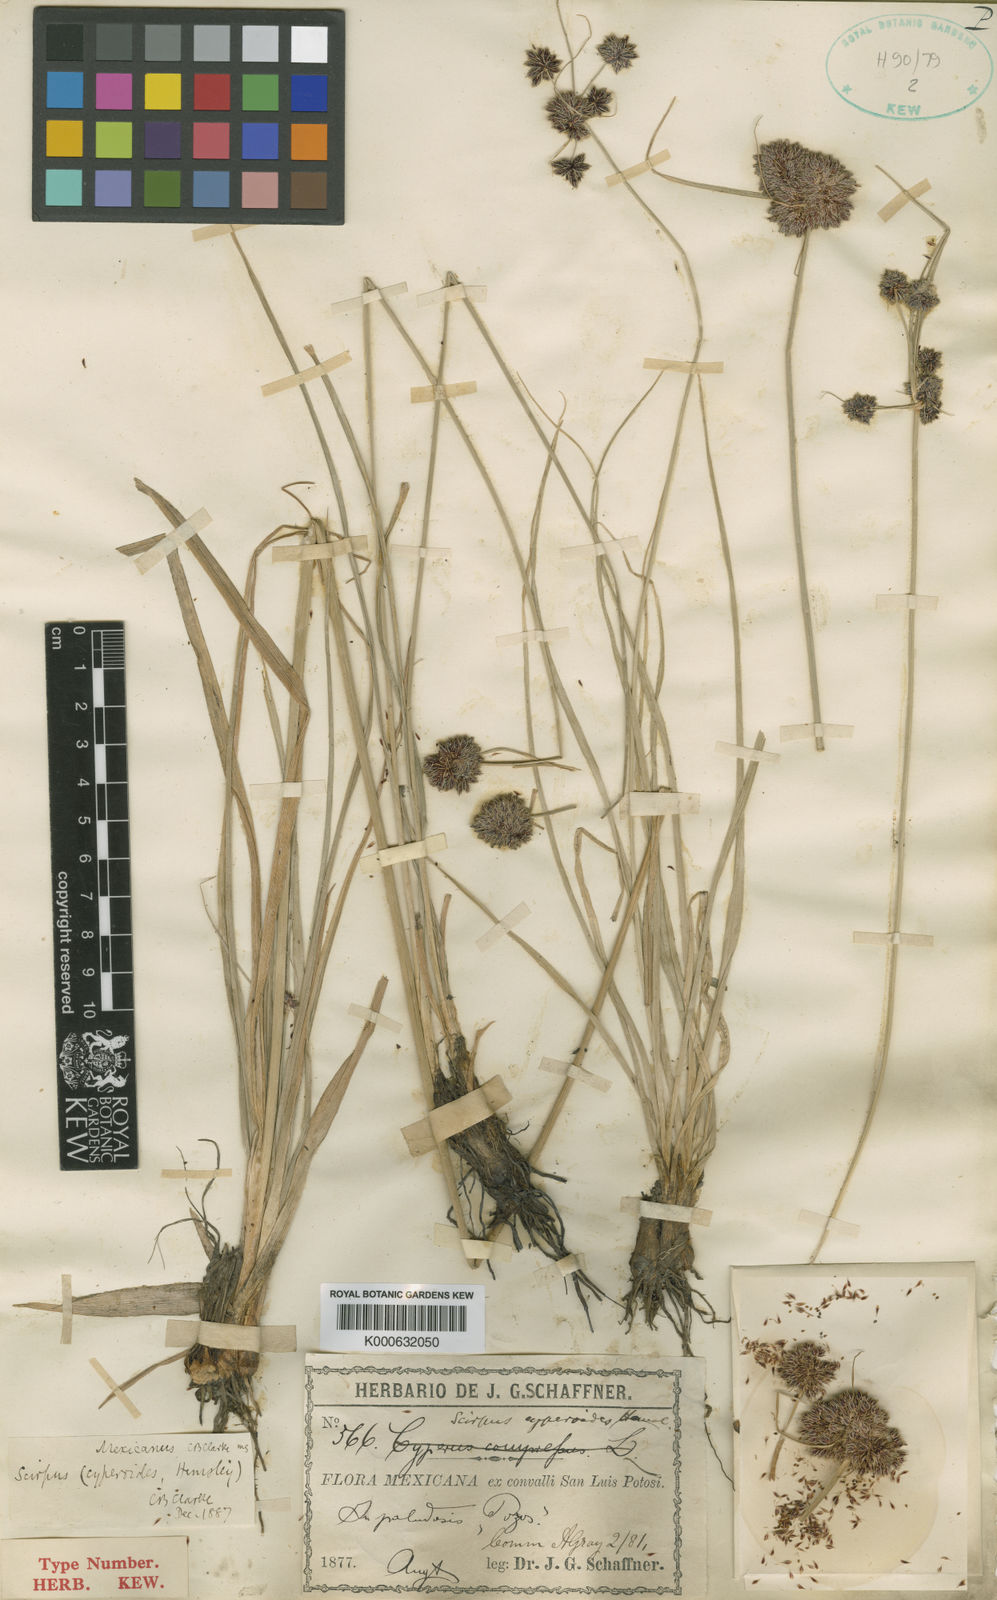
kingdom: Plantae
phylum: Tracheophyta
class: Liliopsida
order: Poales
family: Cyperaceae
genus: Cyperus
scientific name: Cyperus
